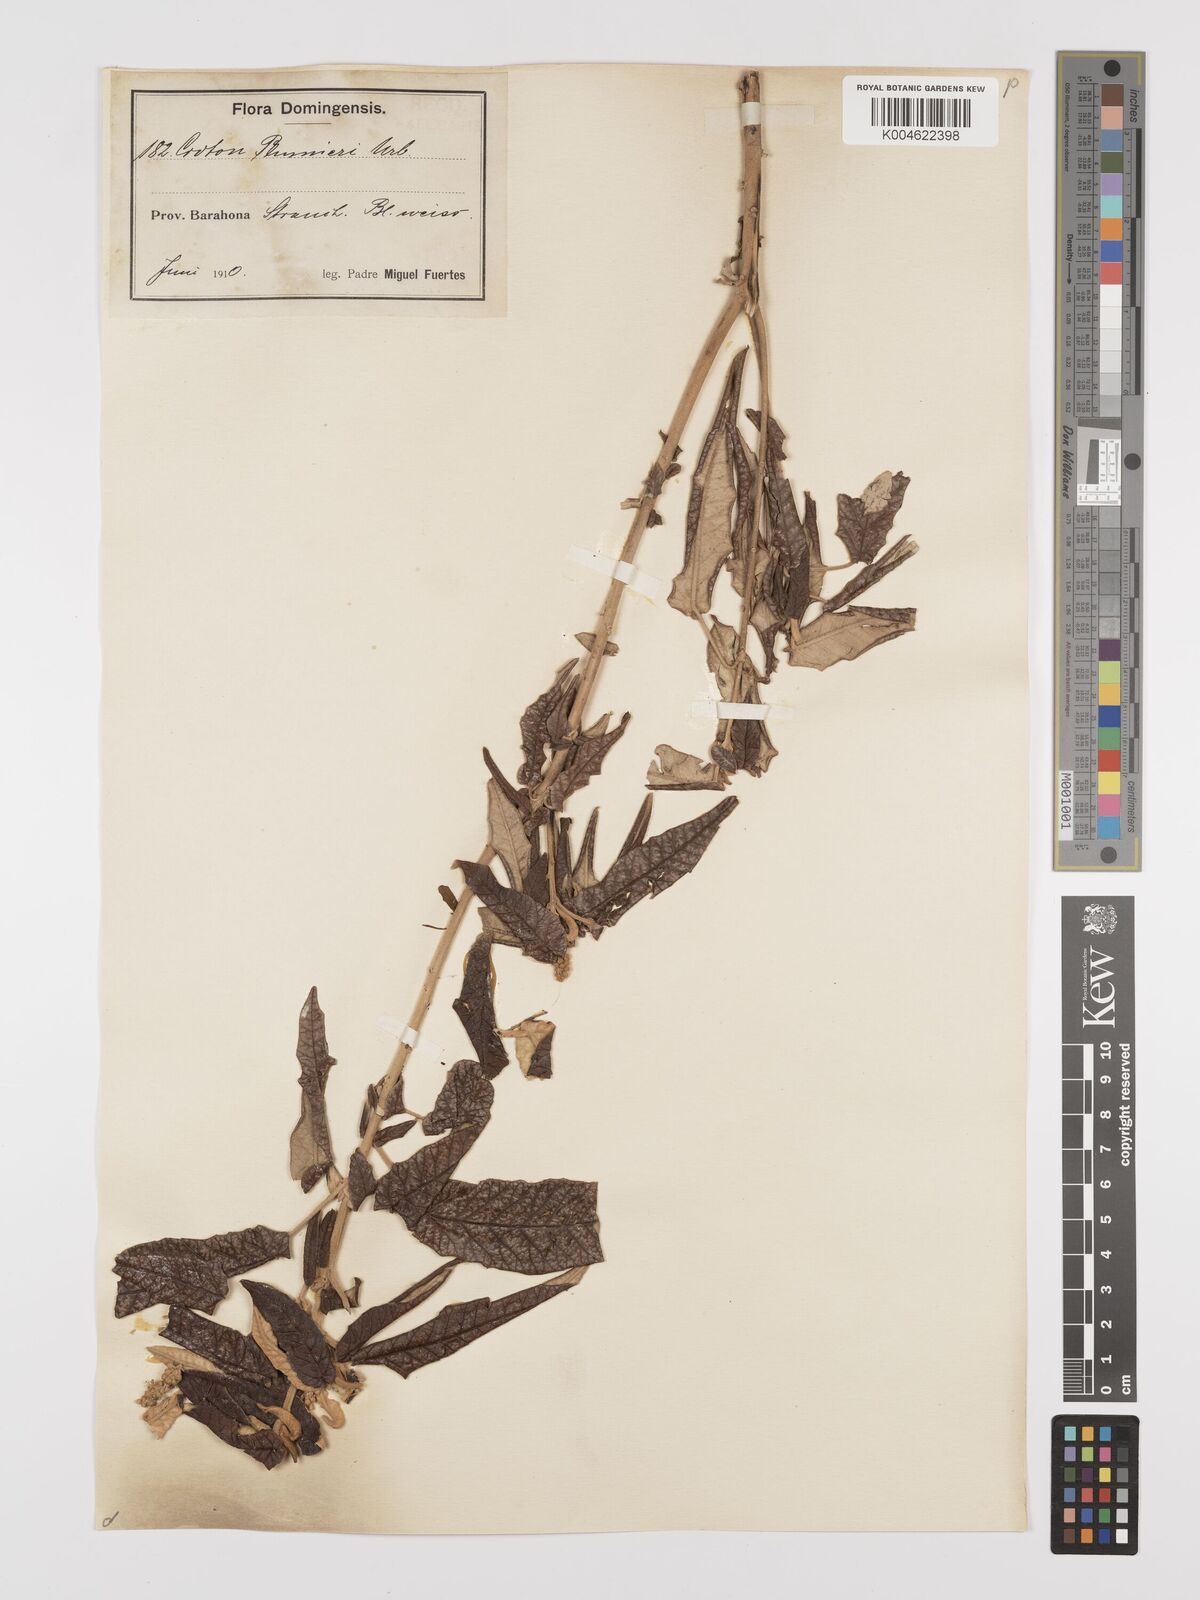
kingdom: Plantae
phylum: Tracheophyta
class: Magnoliopsida
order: Malpighiales
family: Euphorbiaceae
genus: Croton
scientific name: Croton vaillantii
